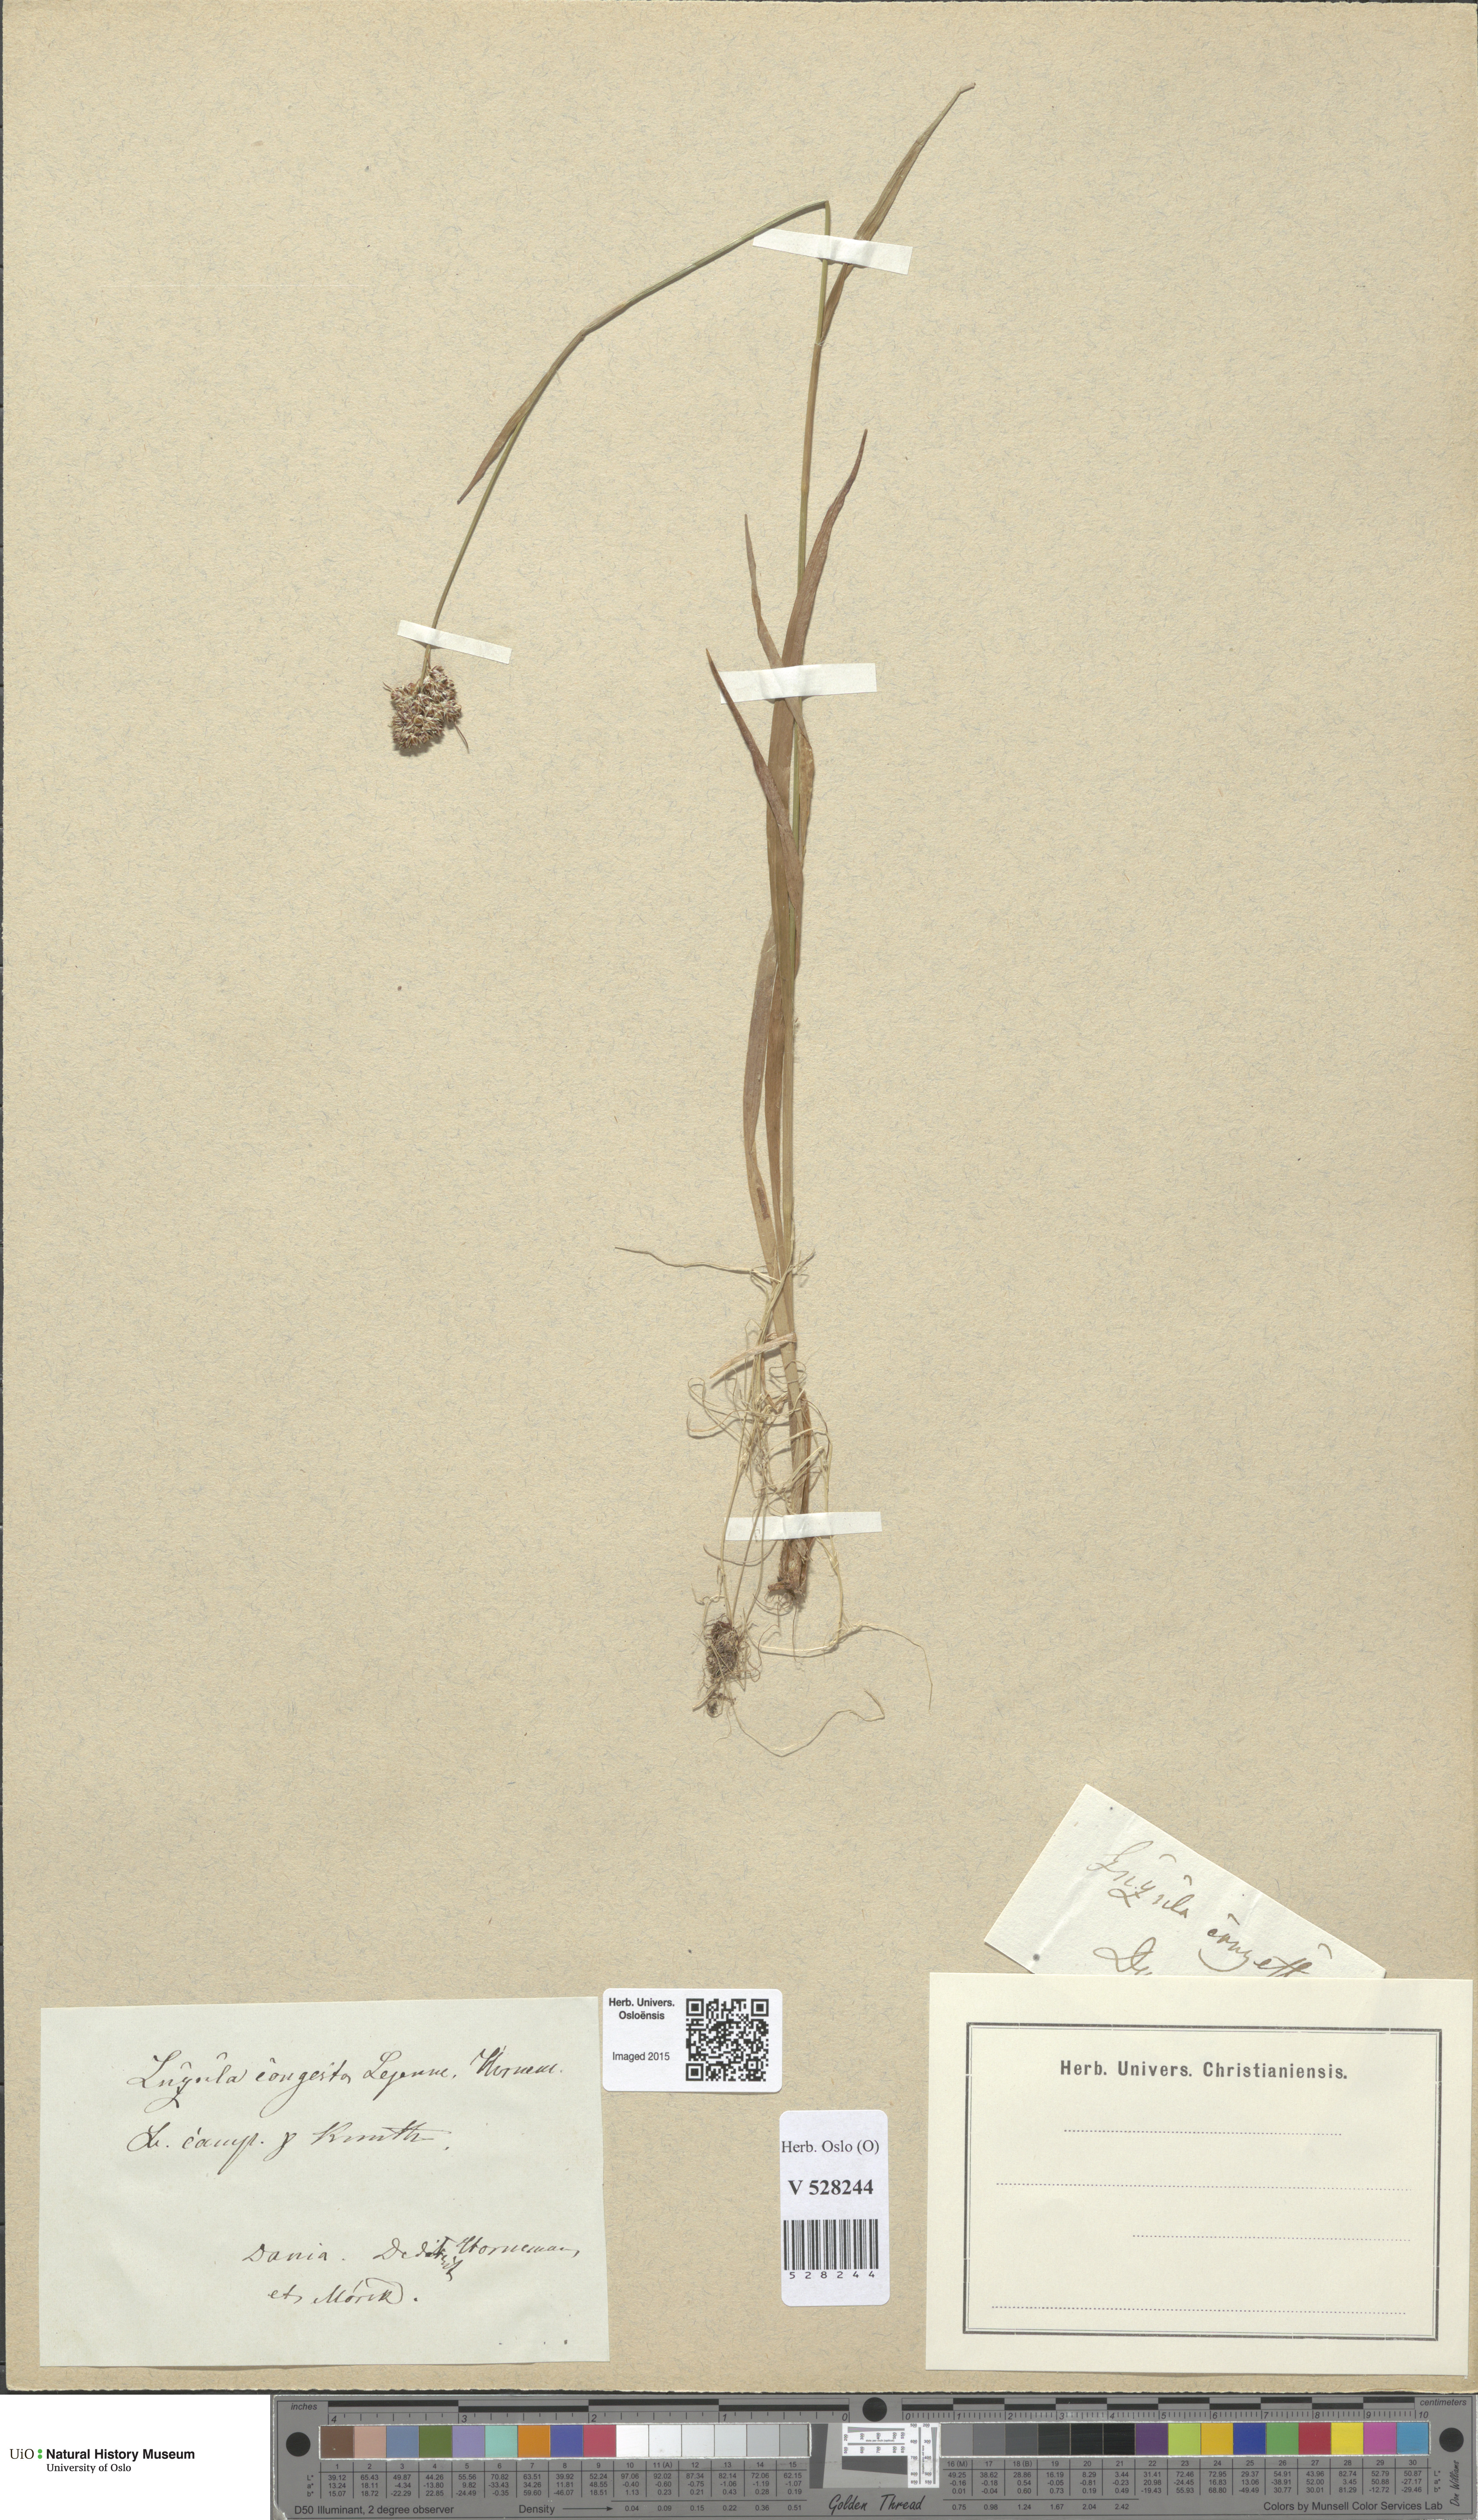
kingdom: Plantae
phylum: Tracheophyta
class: Liliopsida
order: Poales
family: Juncaceae
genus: Luzula
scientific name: Luzula congesta
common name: Heath woodrush
